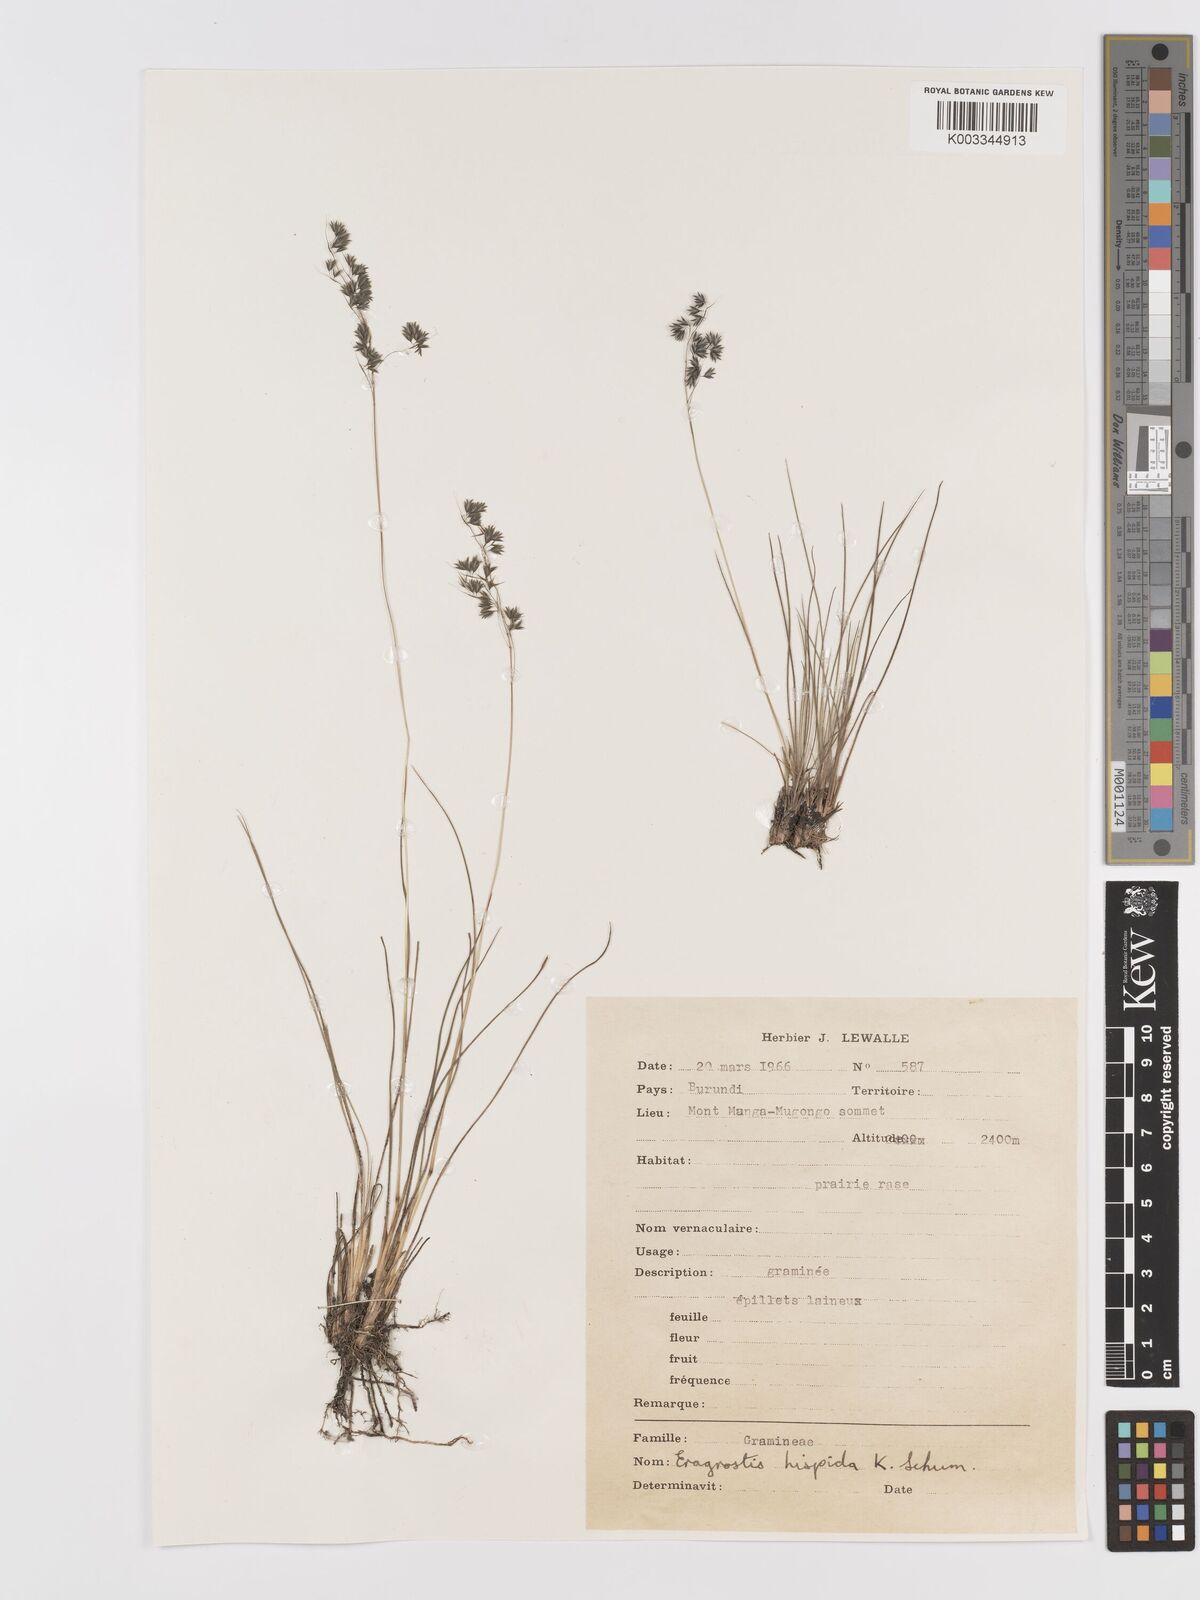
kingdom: Plantae
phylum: Tracheophyta
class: Liliopsida
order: Poales
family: Poaceae
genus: Eragrostis
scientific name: Eragrostis hispida
